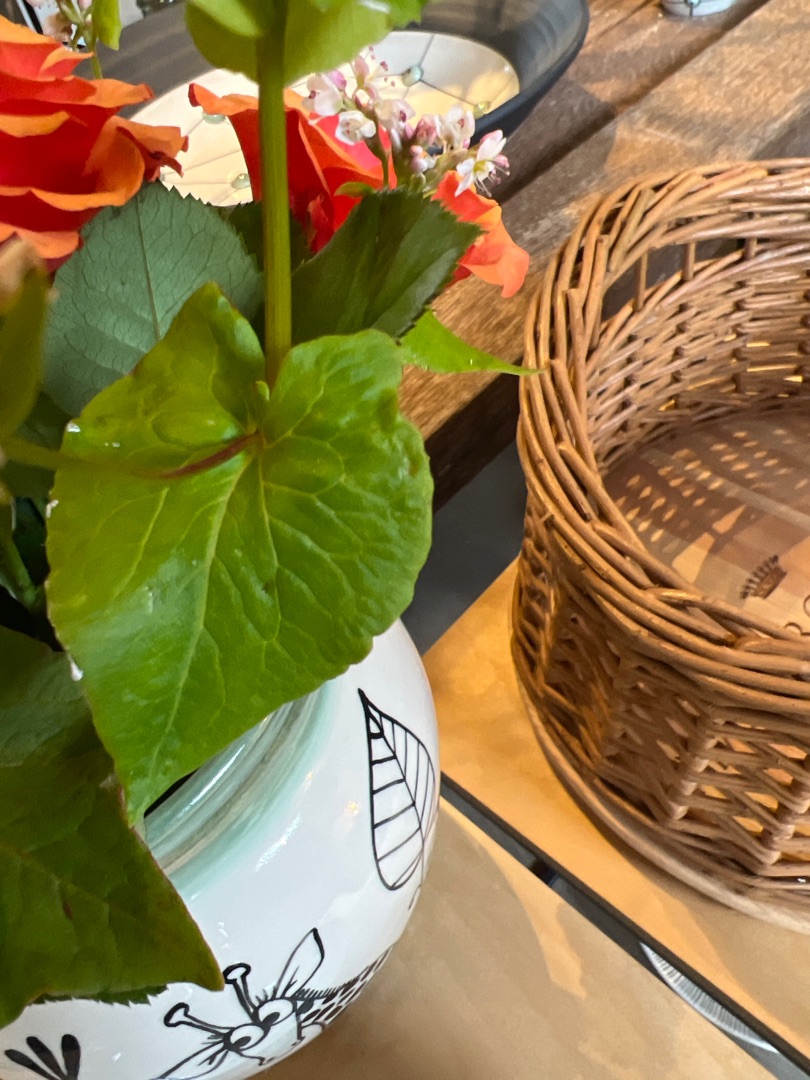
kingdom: Plantae
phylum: Tracheophyta
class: Magnoliopsida
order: Caryophyllales
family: Polygonaceae
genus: Fagopyrum
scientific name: Fagopyrum esculentum
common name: Almindelig boghvede
